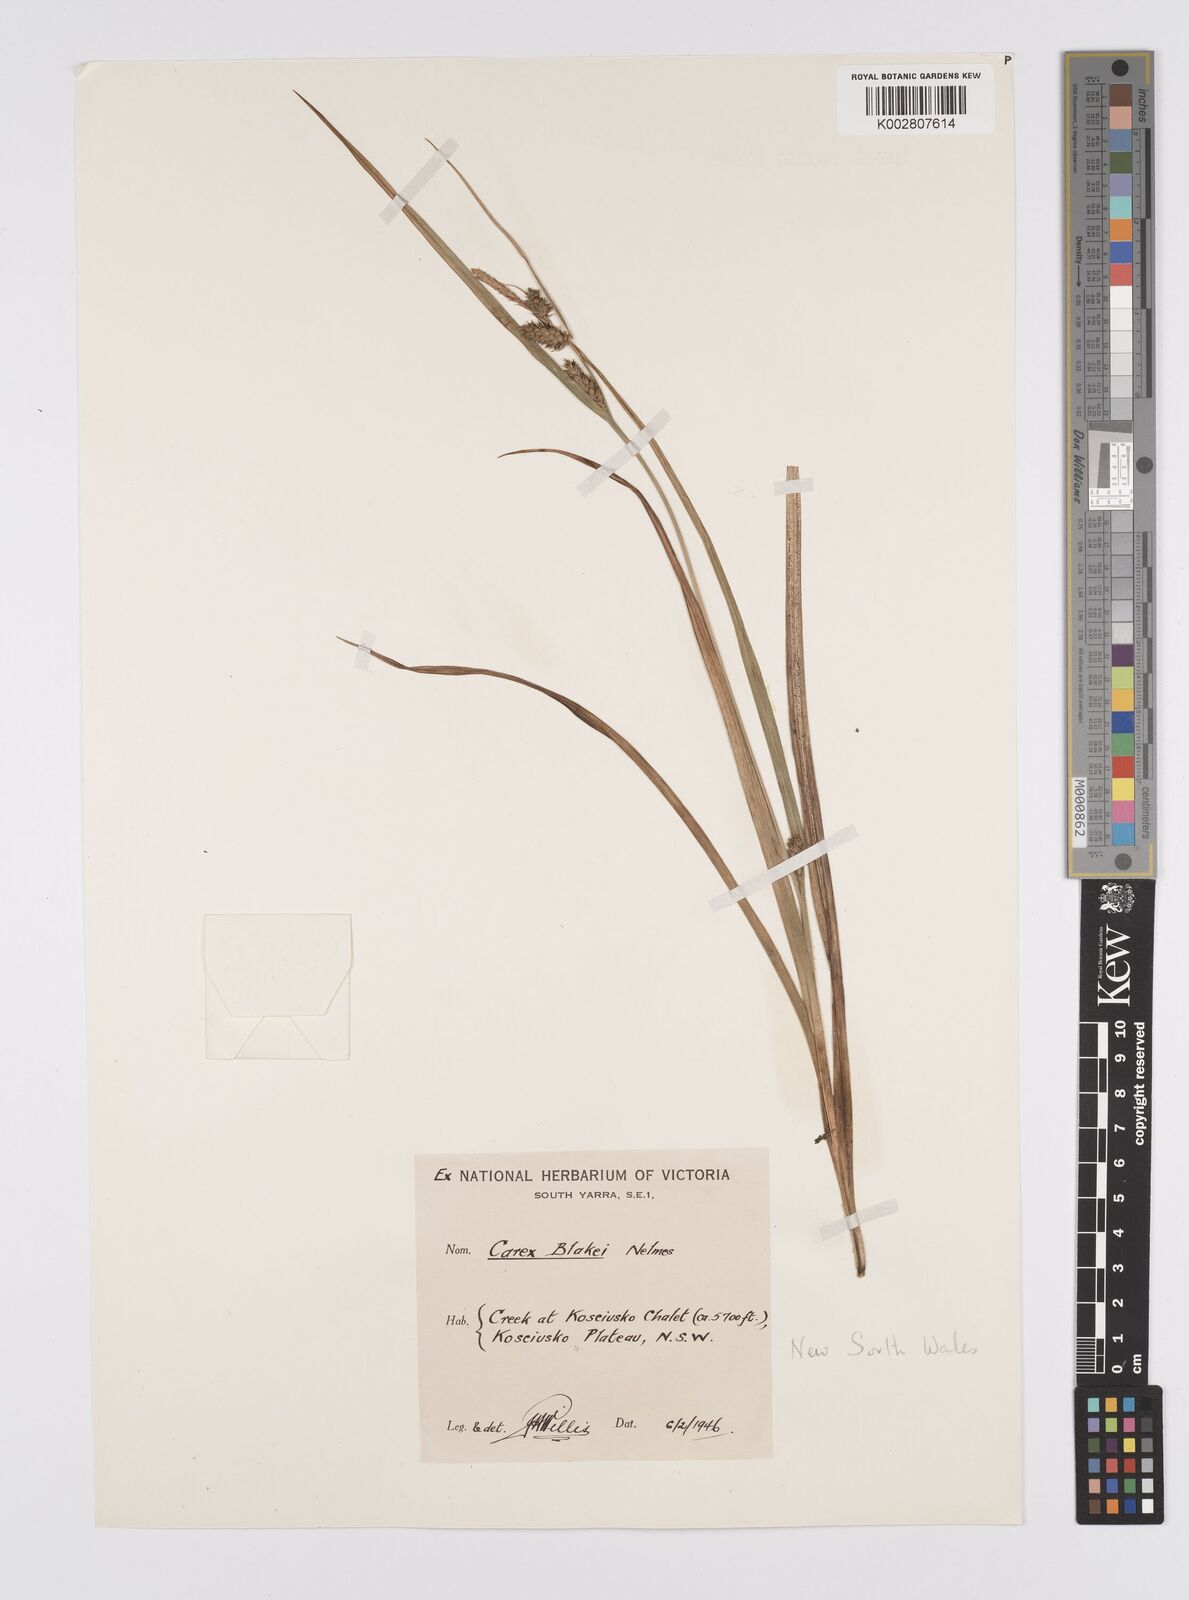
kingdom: Plantae
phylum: Tracheophyta
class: Liliopsida
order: Poales
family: Cyperaceae
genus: Carex
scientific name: Carex blakei
